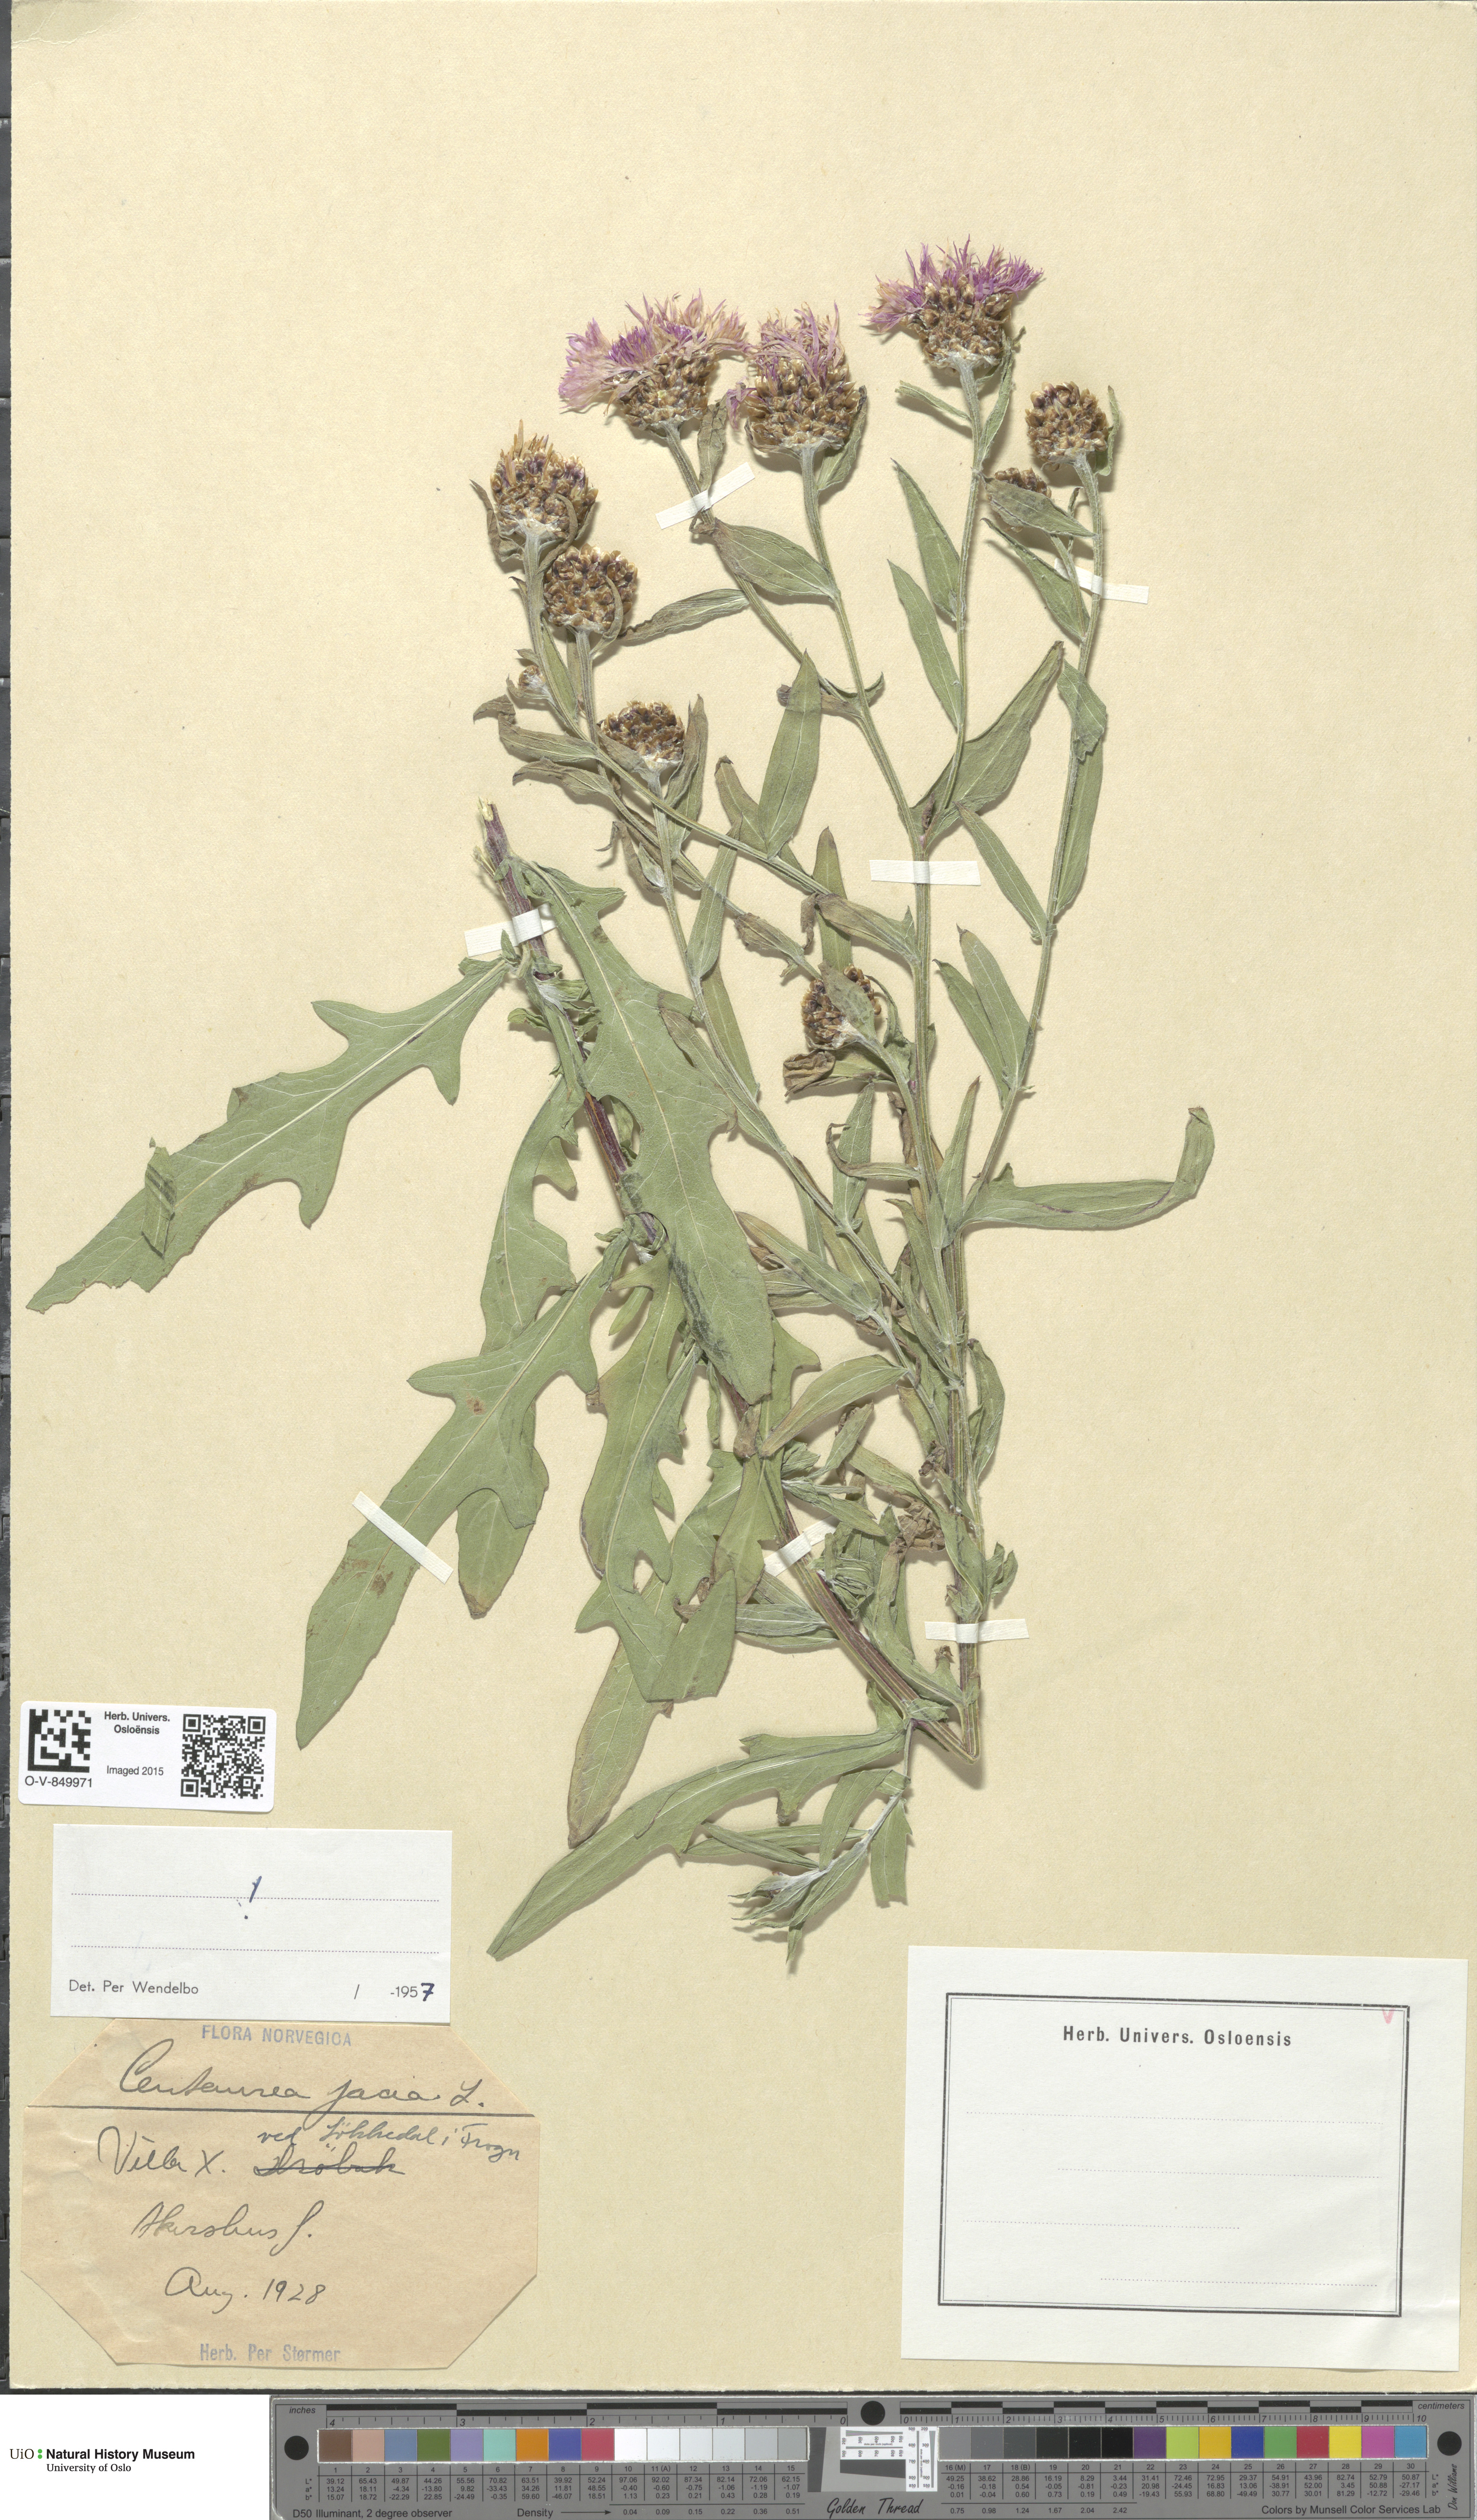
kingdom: Plantae
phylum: Tracheophyta
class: Magnoliopsida
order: Asterales
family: Asteraceae
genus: Centaurea
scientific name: Centaurea jacea
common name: Brown knapweed
